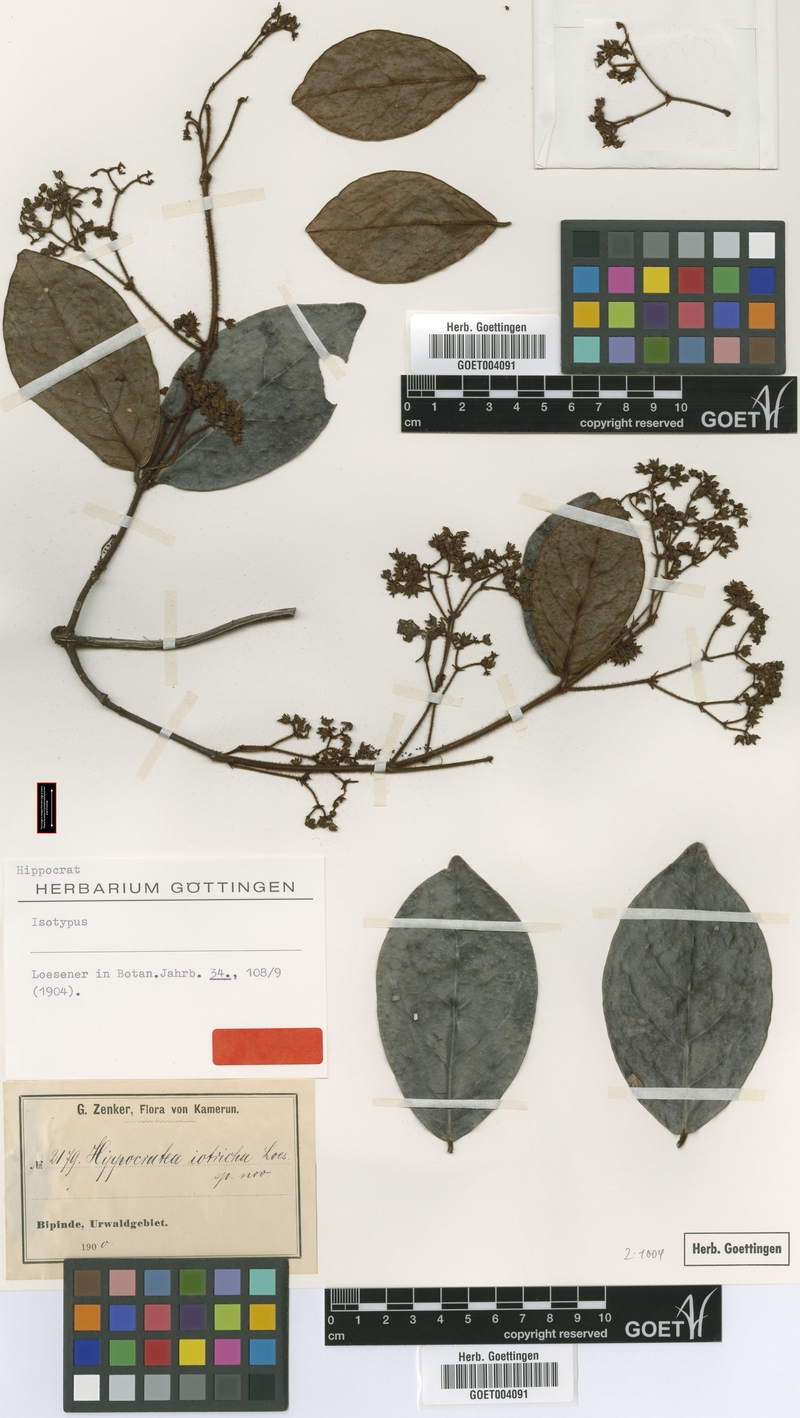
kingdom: Plantae
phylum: Tracheophyta
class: Magnoliopsida
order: Celastrales
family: Celastraceae
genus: Loeseneriella
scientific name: Loeseneriella iotricha
